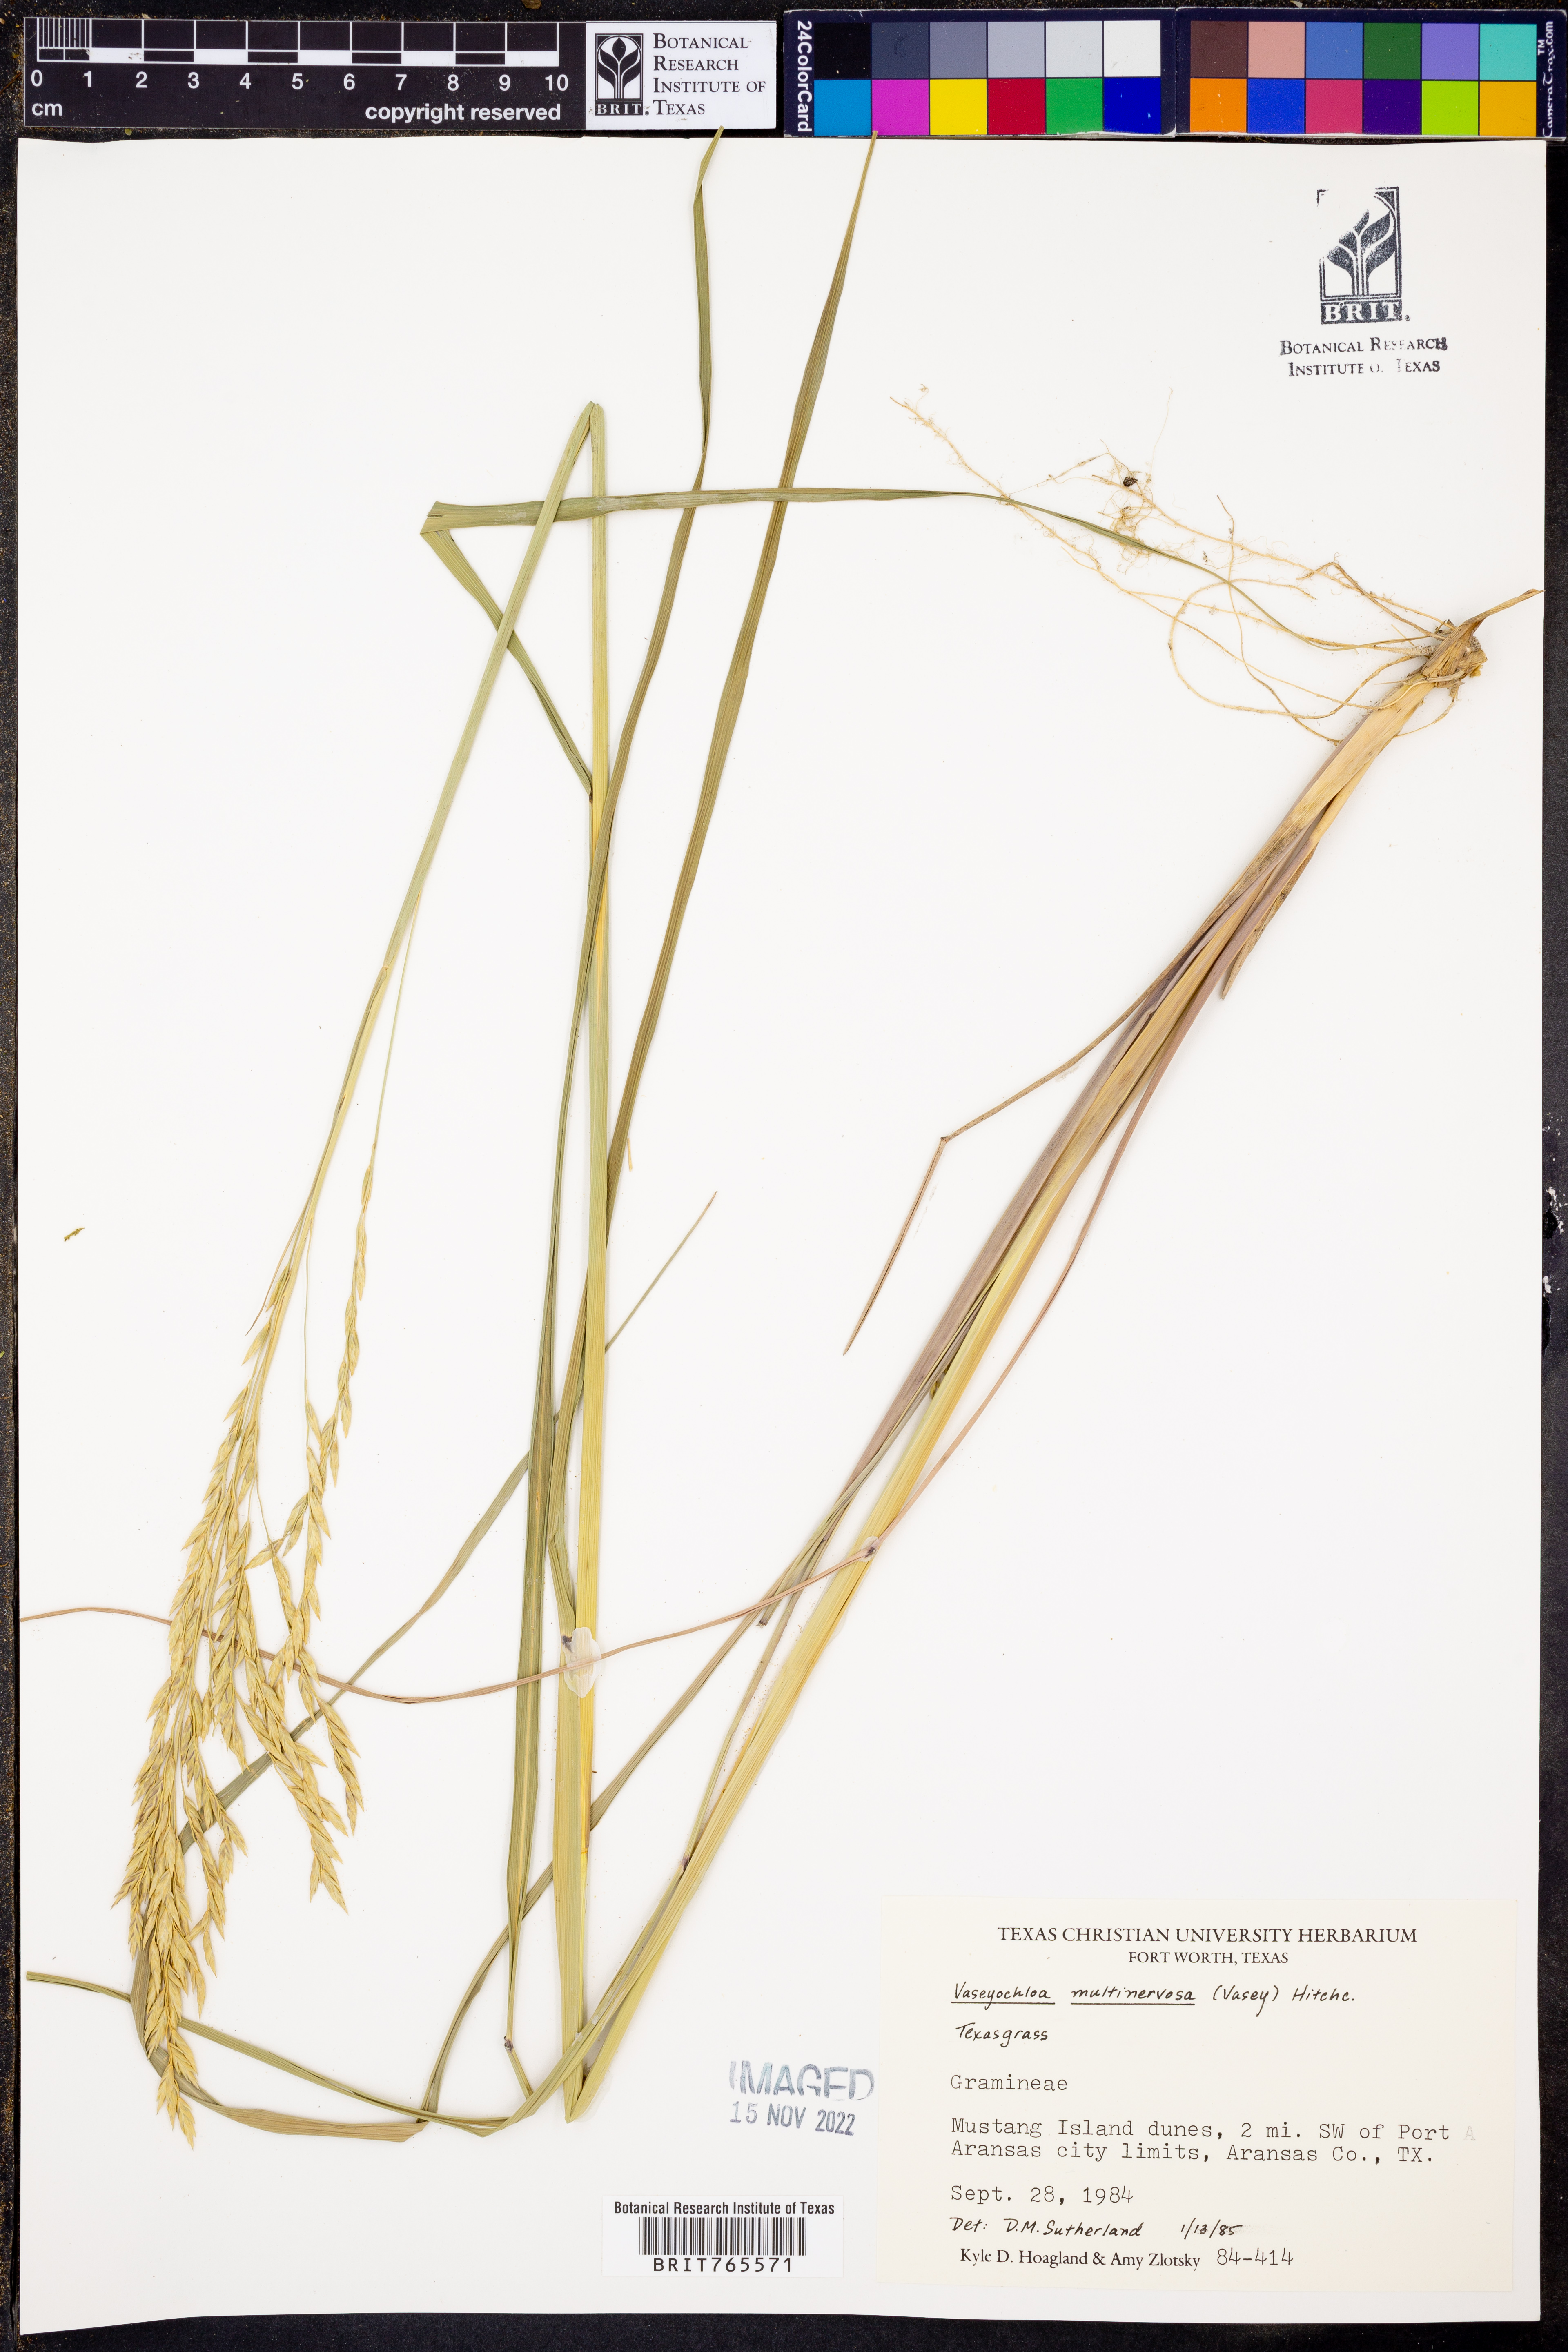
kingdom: Plantae
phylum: Tracheophyta
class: Liliopsida
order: Poales
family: Poaceae
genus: Vaseyochloa
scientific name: Vaseyochloa multinervosa
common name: Texas grass
